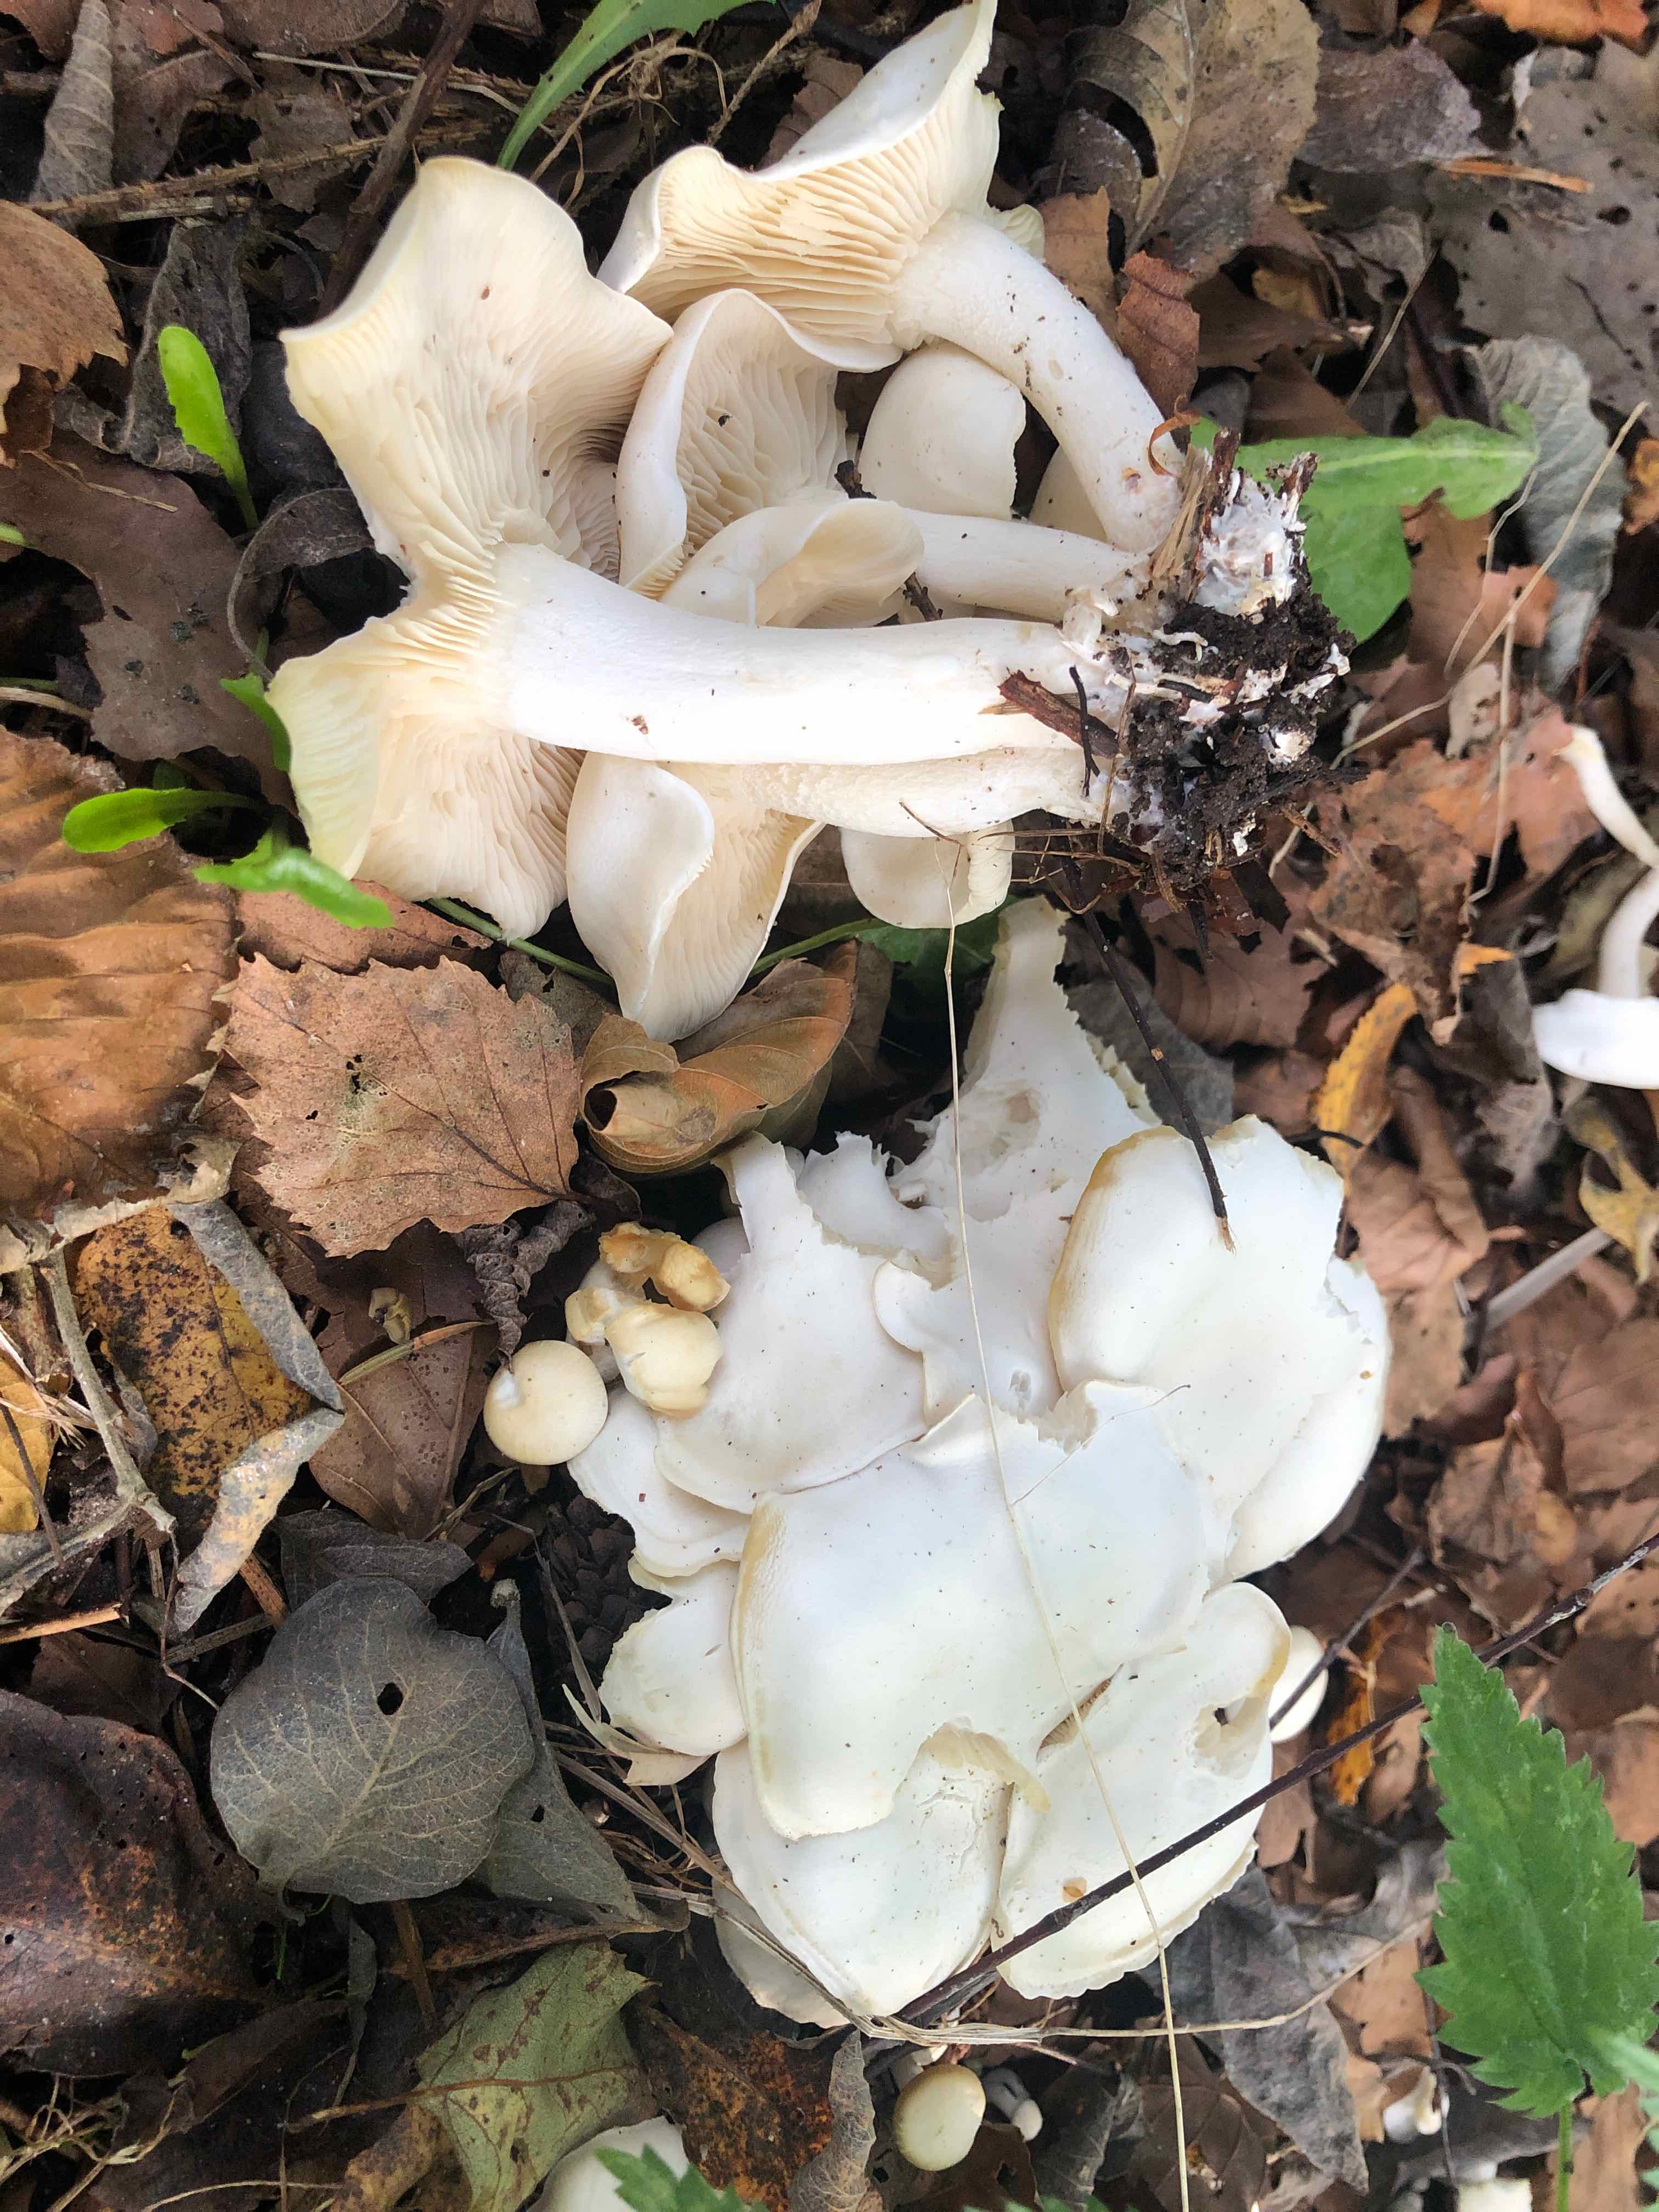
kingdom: Fungi
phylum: Basidiomycota
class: Agaricomycetes
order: Agaricales
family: Tricholomataceae
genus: Leucocybe
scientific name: Leucocybe connata
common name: knippe-tragthat
